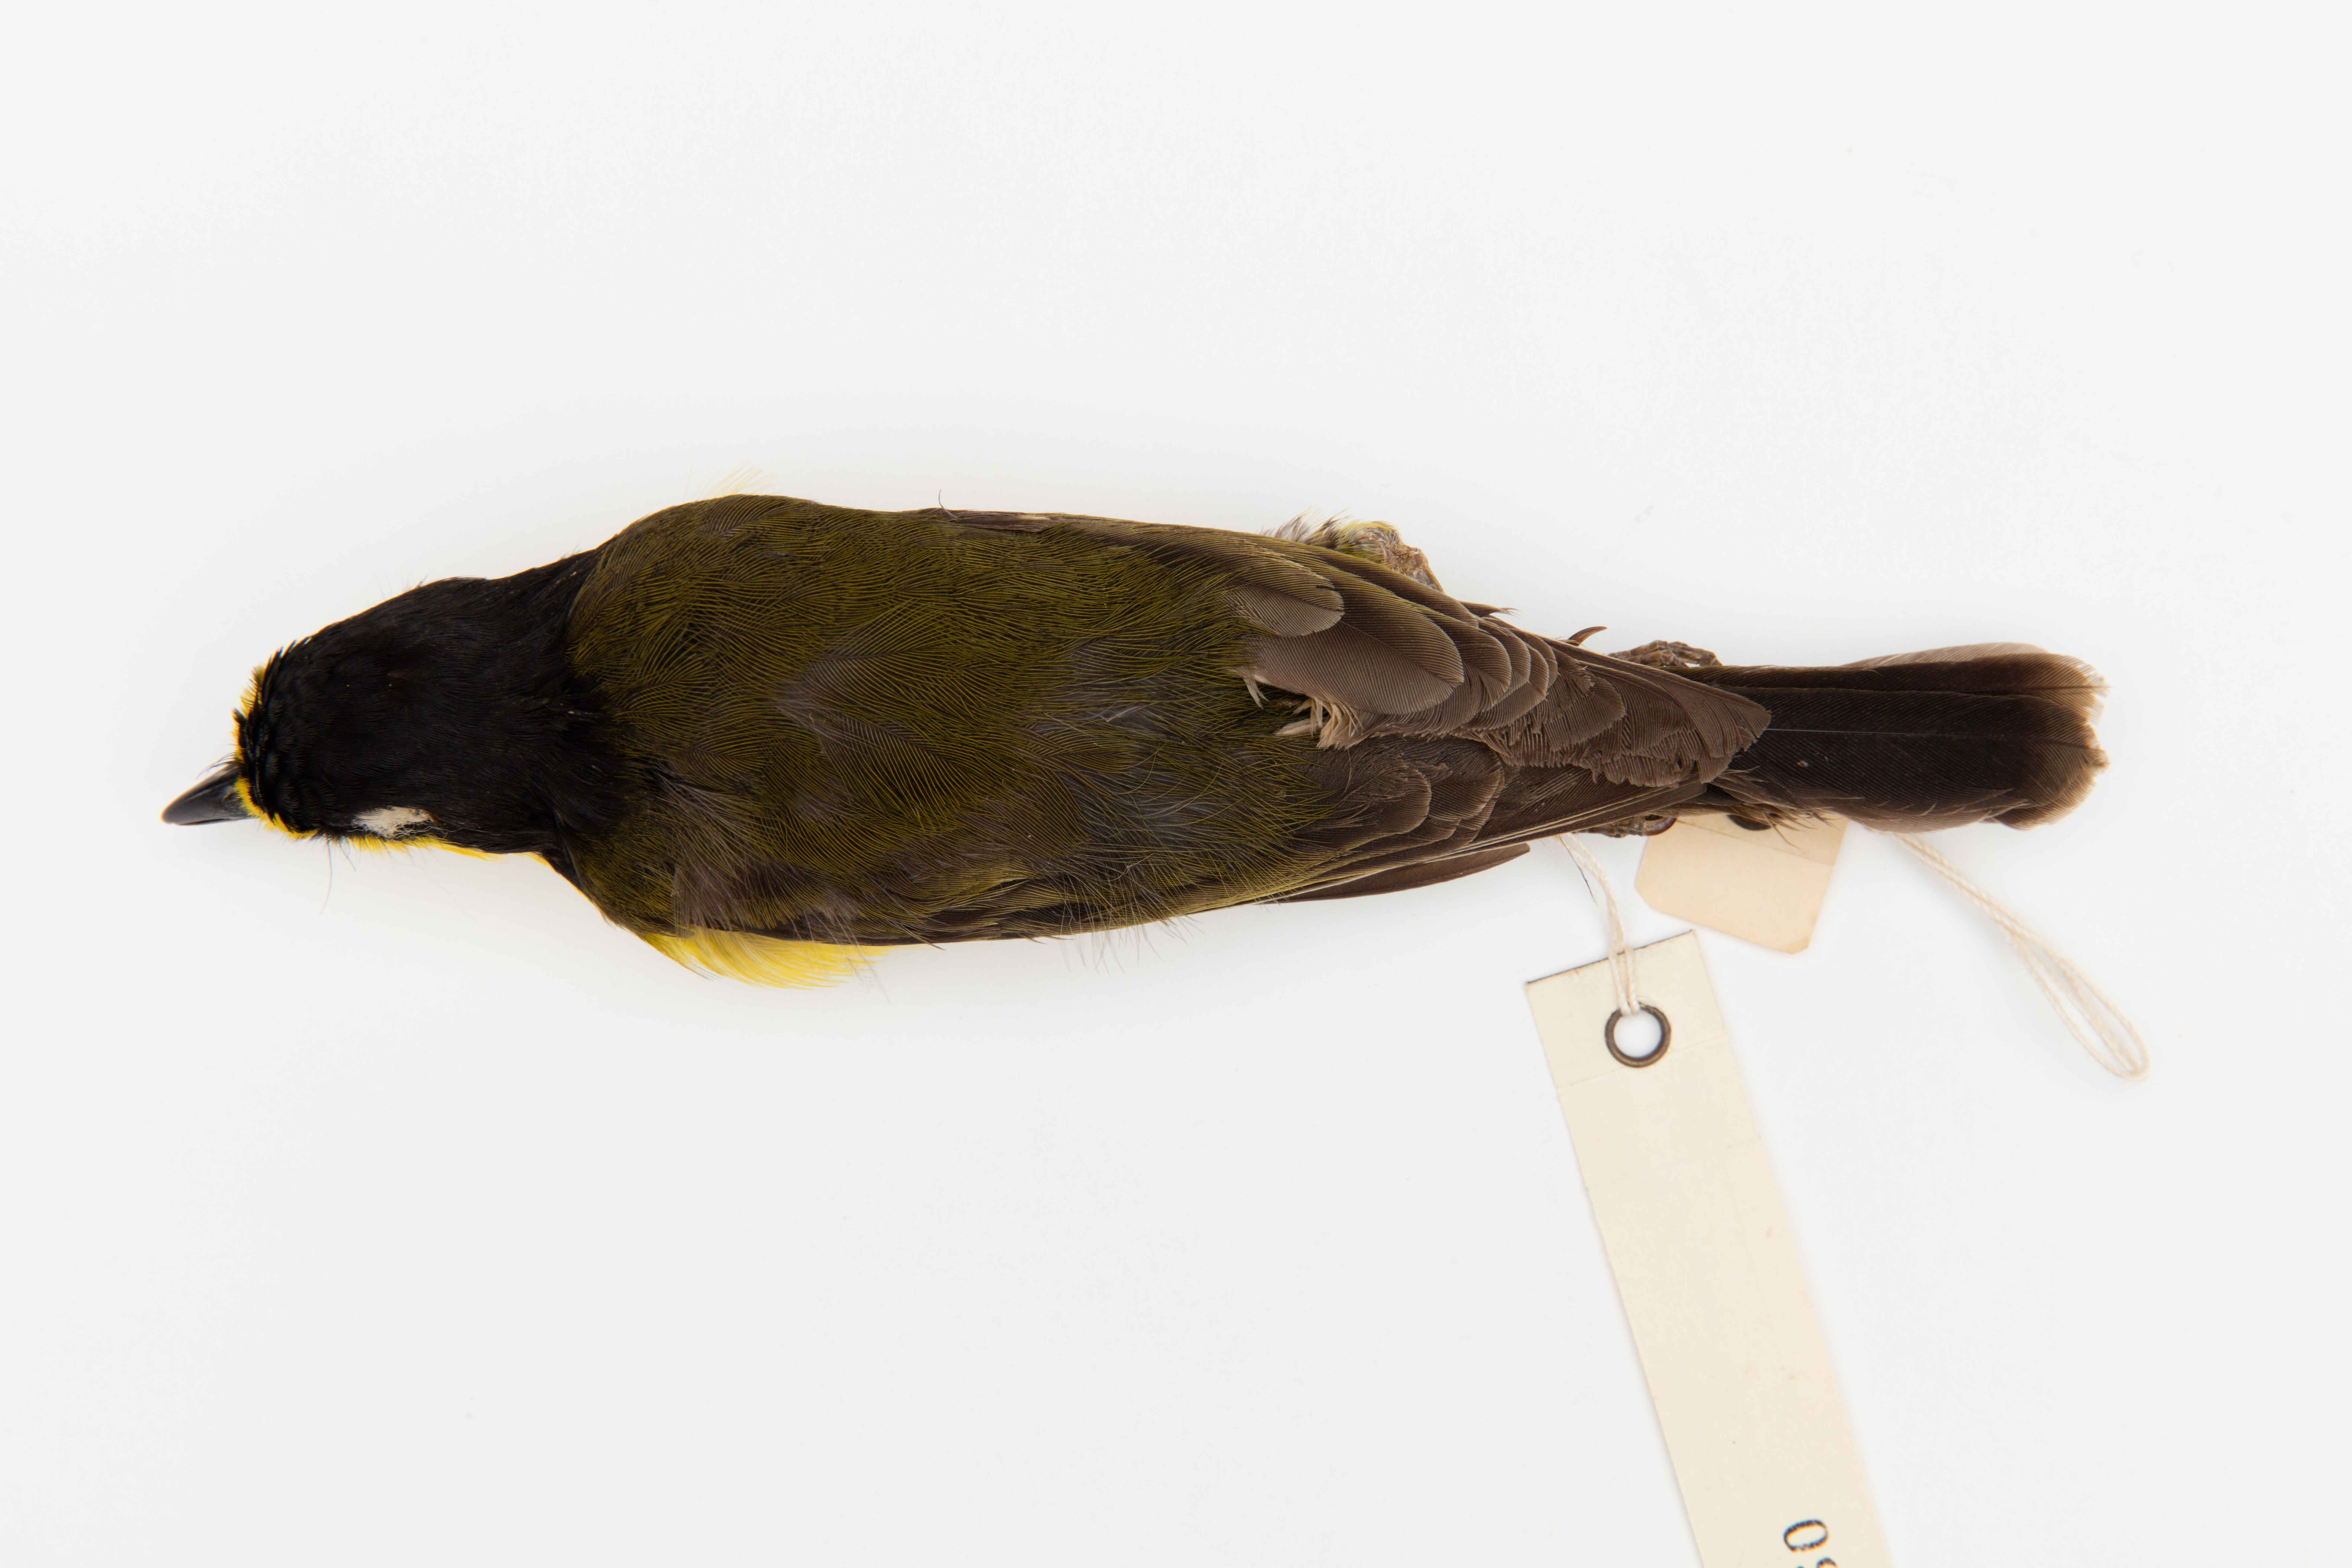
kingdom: Animalia
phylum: Chordata
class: Aves
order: Passeriformes
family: Pachycephalidae
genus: Pachycephala
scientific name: Pachycephala pectoralis
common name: Australian golden whistler
